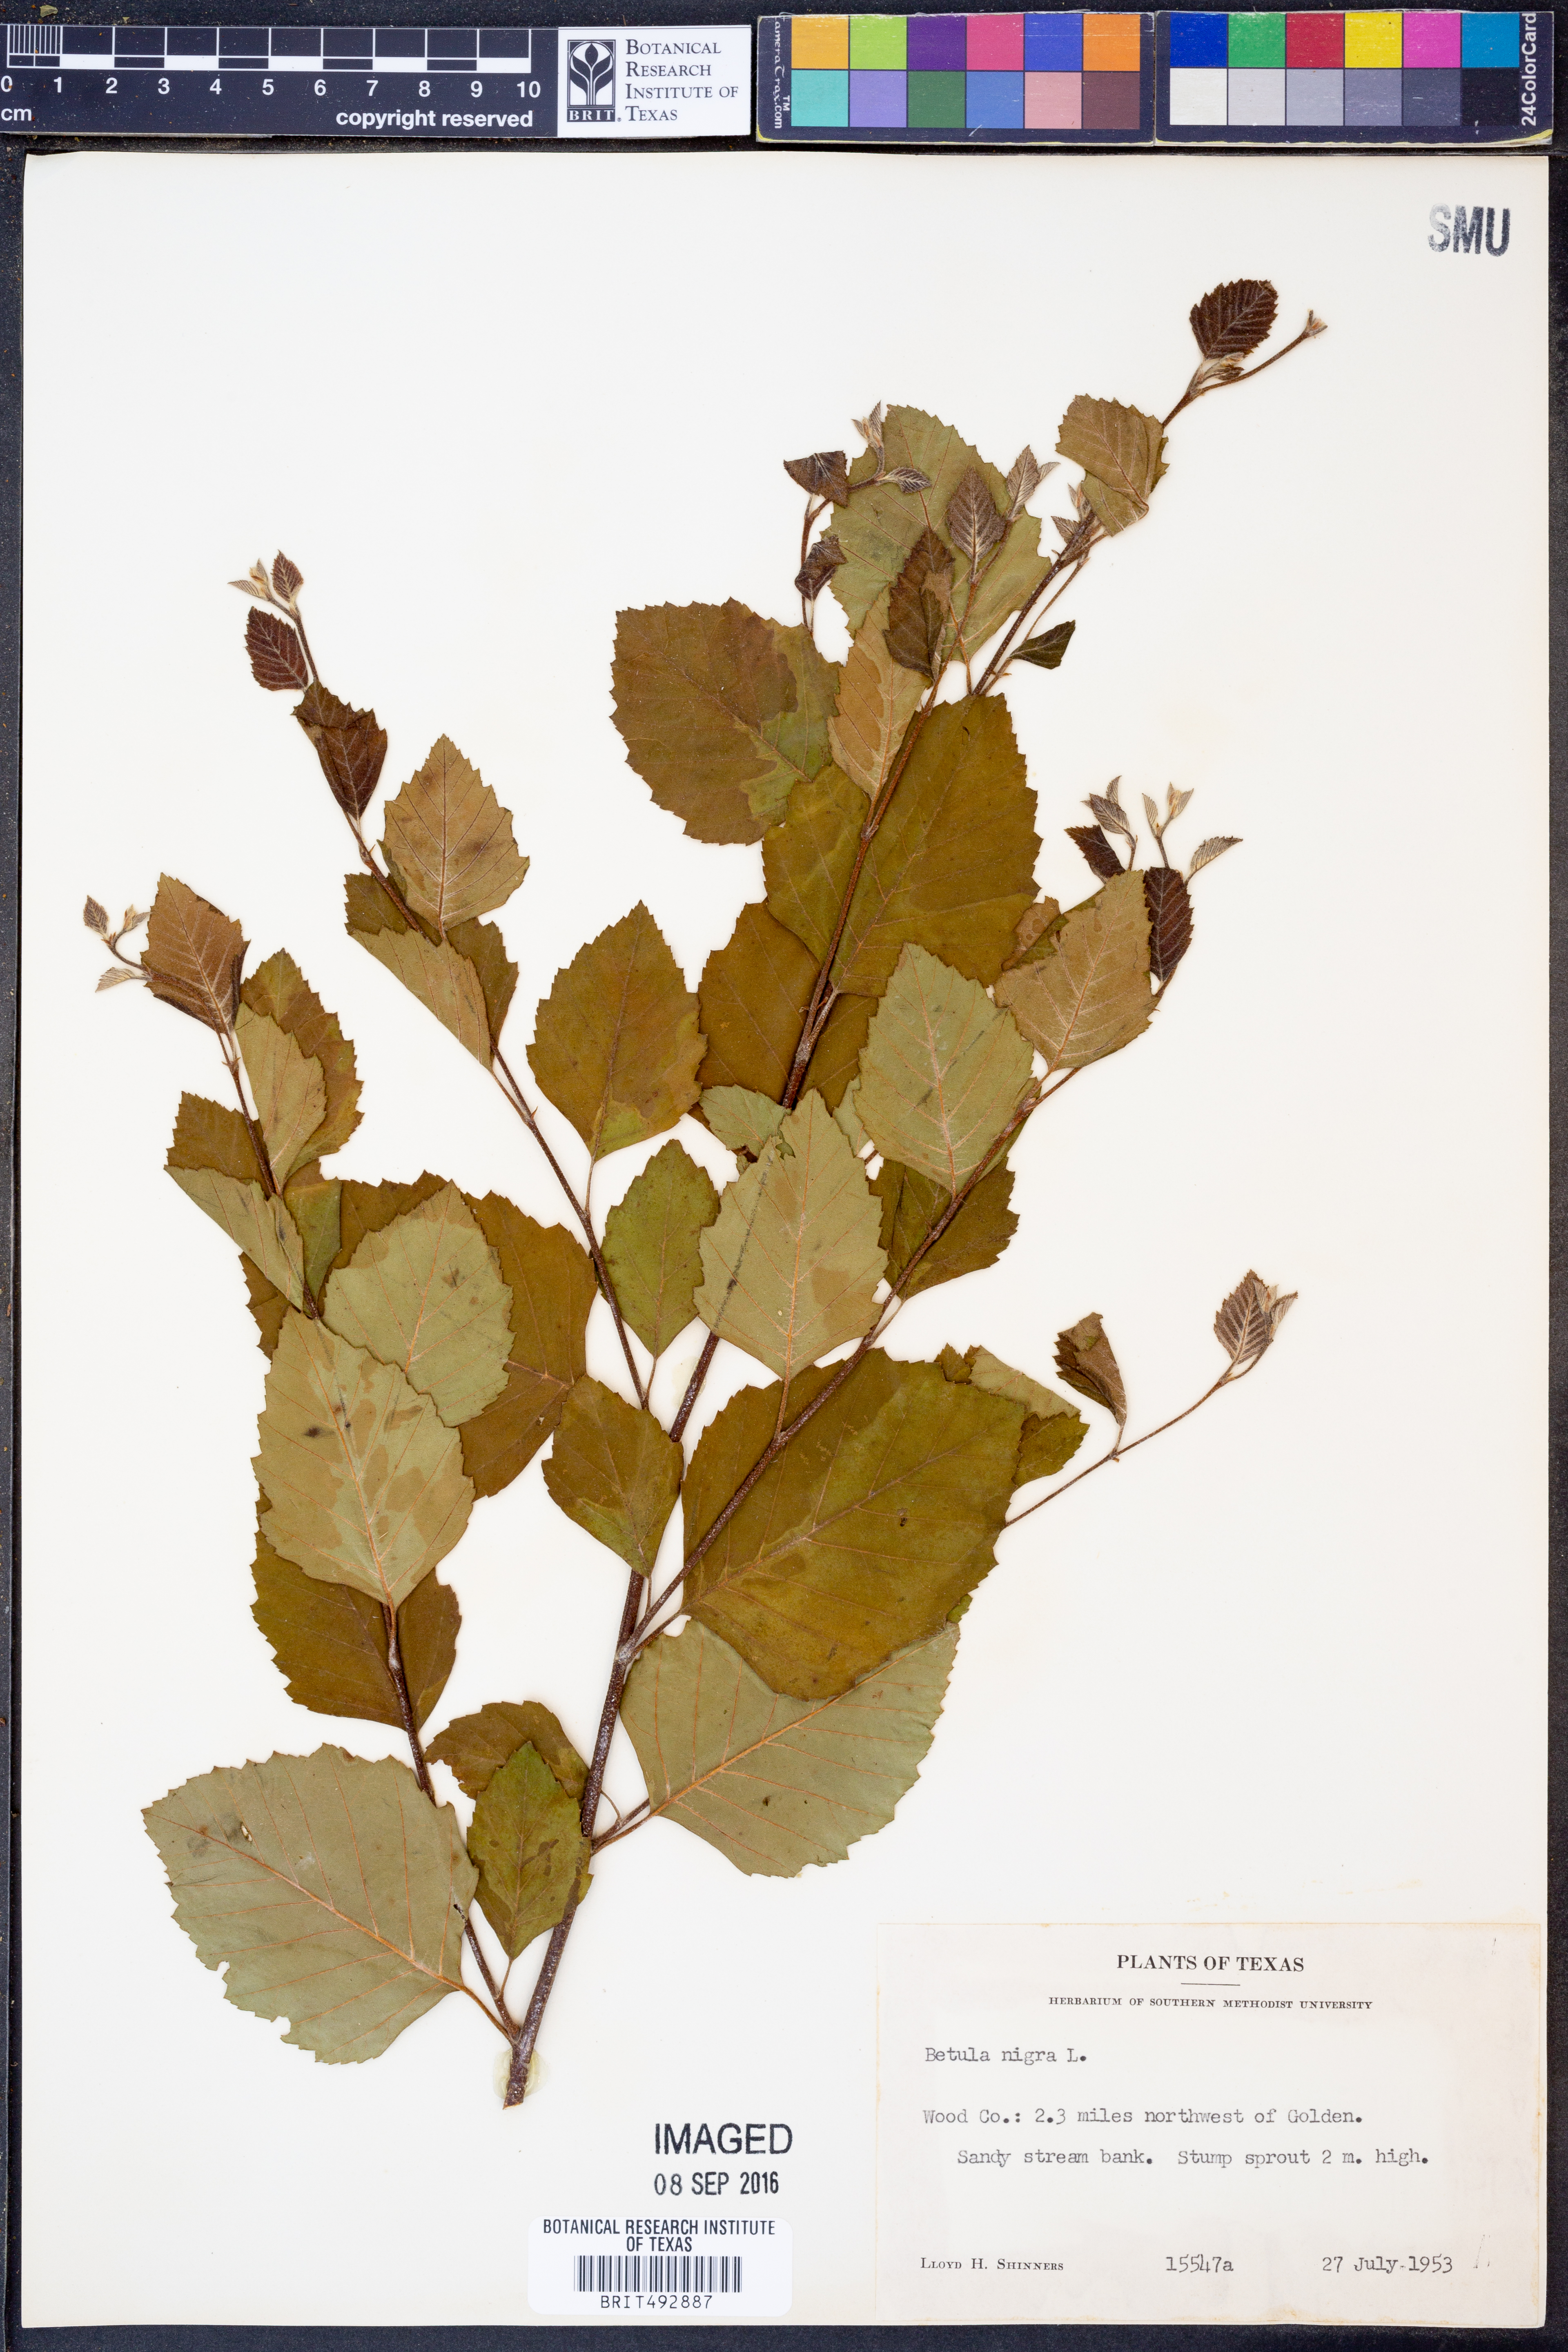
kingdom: Plantae
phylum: Tracheophyta
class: Magnoliopsida
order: Fagales
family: Betulaceae
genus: Betula
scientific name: Betula nigra
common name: Black birch
